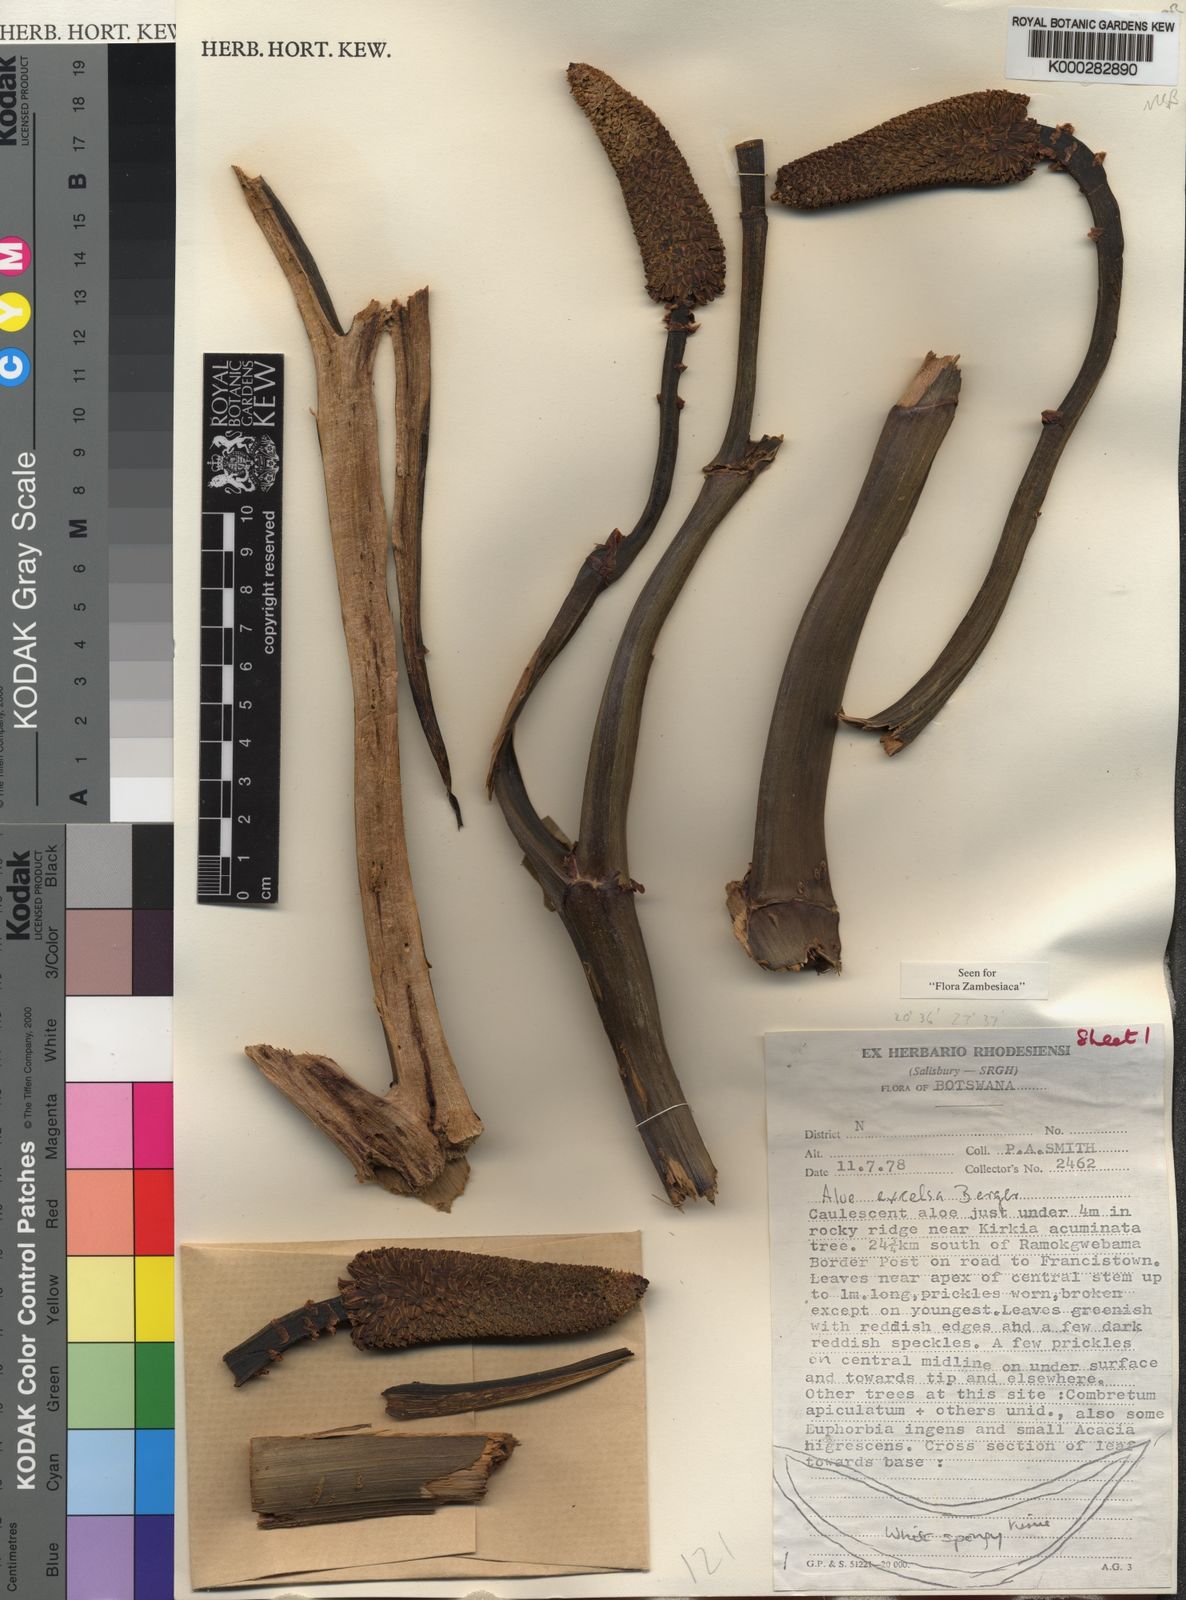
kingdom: Plantae
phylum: Tracheophyta
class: Liliopsida
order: Asparagales
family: Asphodelaceae
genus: Aloe
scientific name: Aloe excelsa
